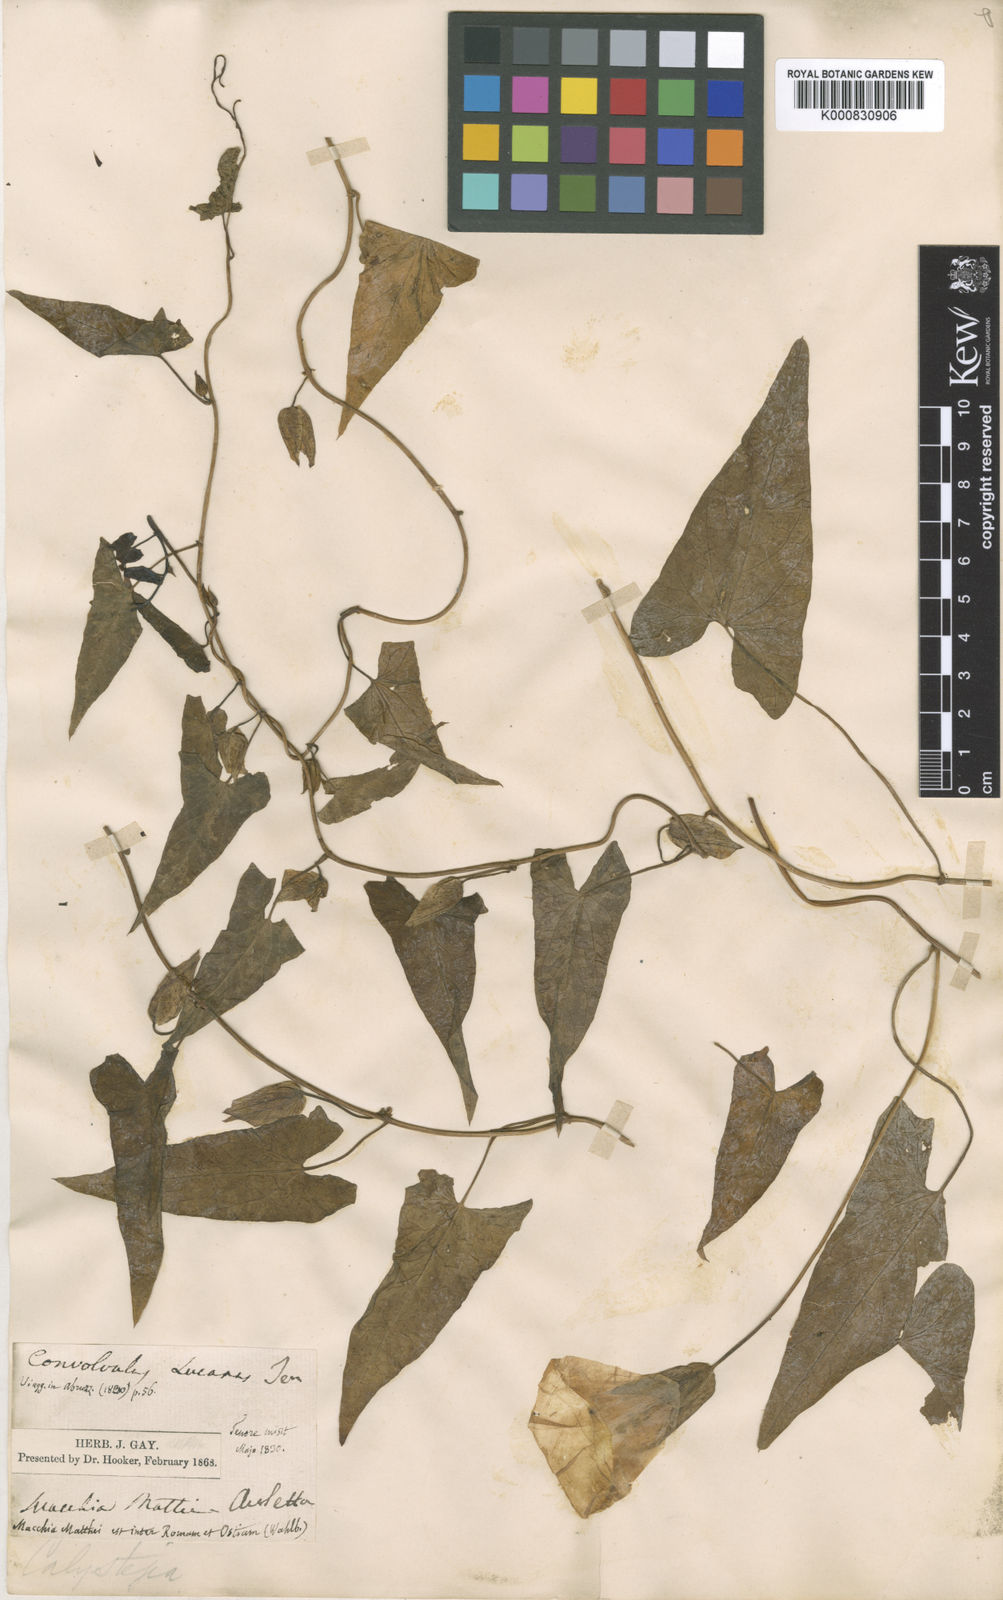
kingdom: Plantae
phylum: Tracheophyta
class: Magnoliopsida
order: Solanales
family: Convolvulaceae
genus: Calystegia
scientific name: Calystegia sepium
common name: Hedge bindweed
